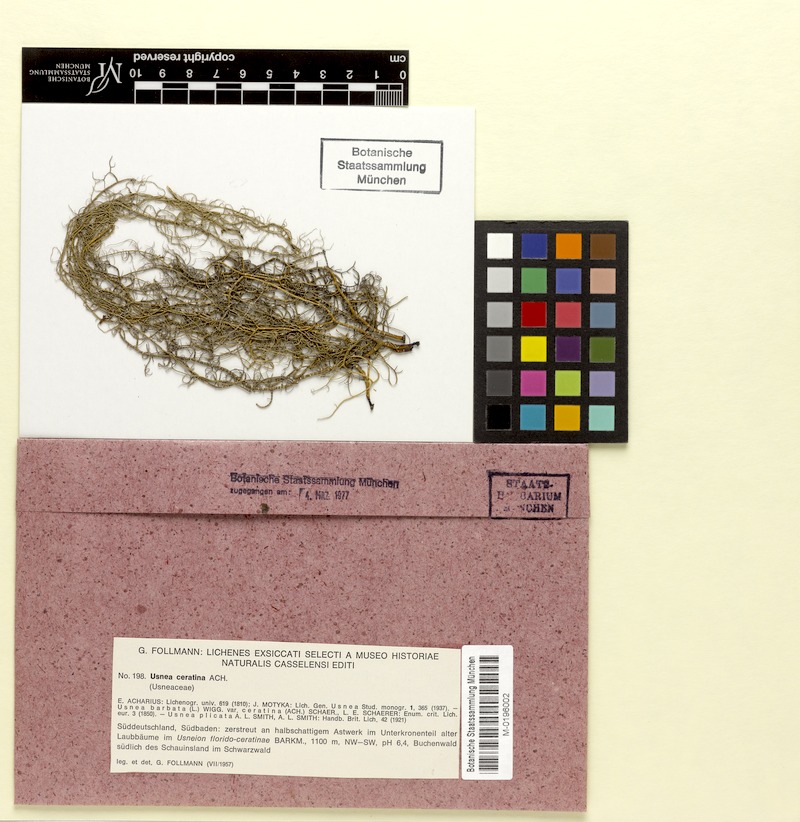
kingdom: Fungi
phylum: Ascomycota
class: Lecanoromycetes
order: Lecanorales
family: Parmeliaceae
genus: Usnea
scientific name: Usnea ceratina
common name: Warty beard lichen
